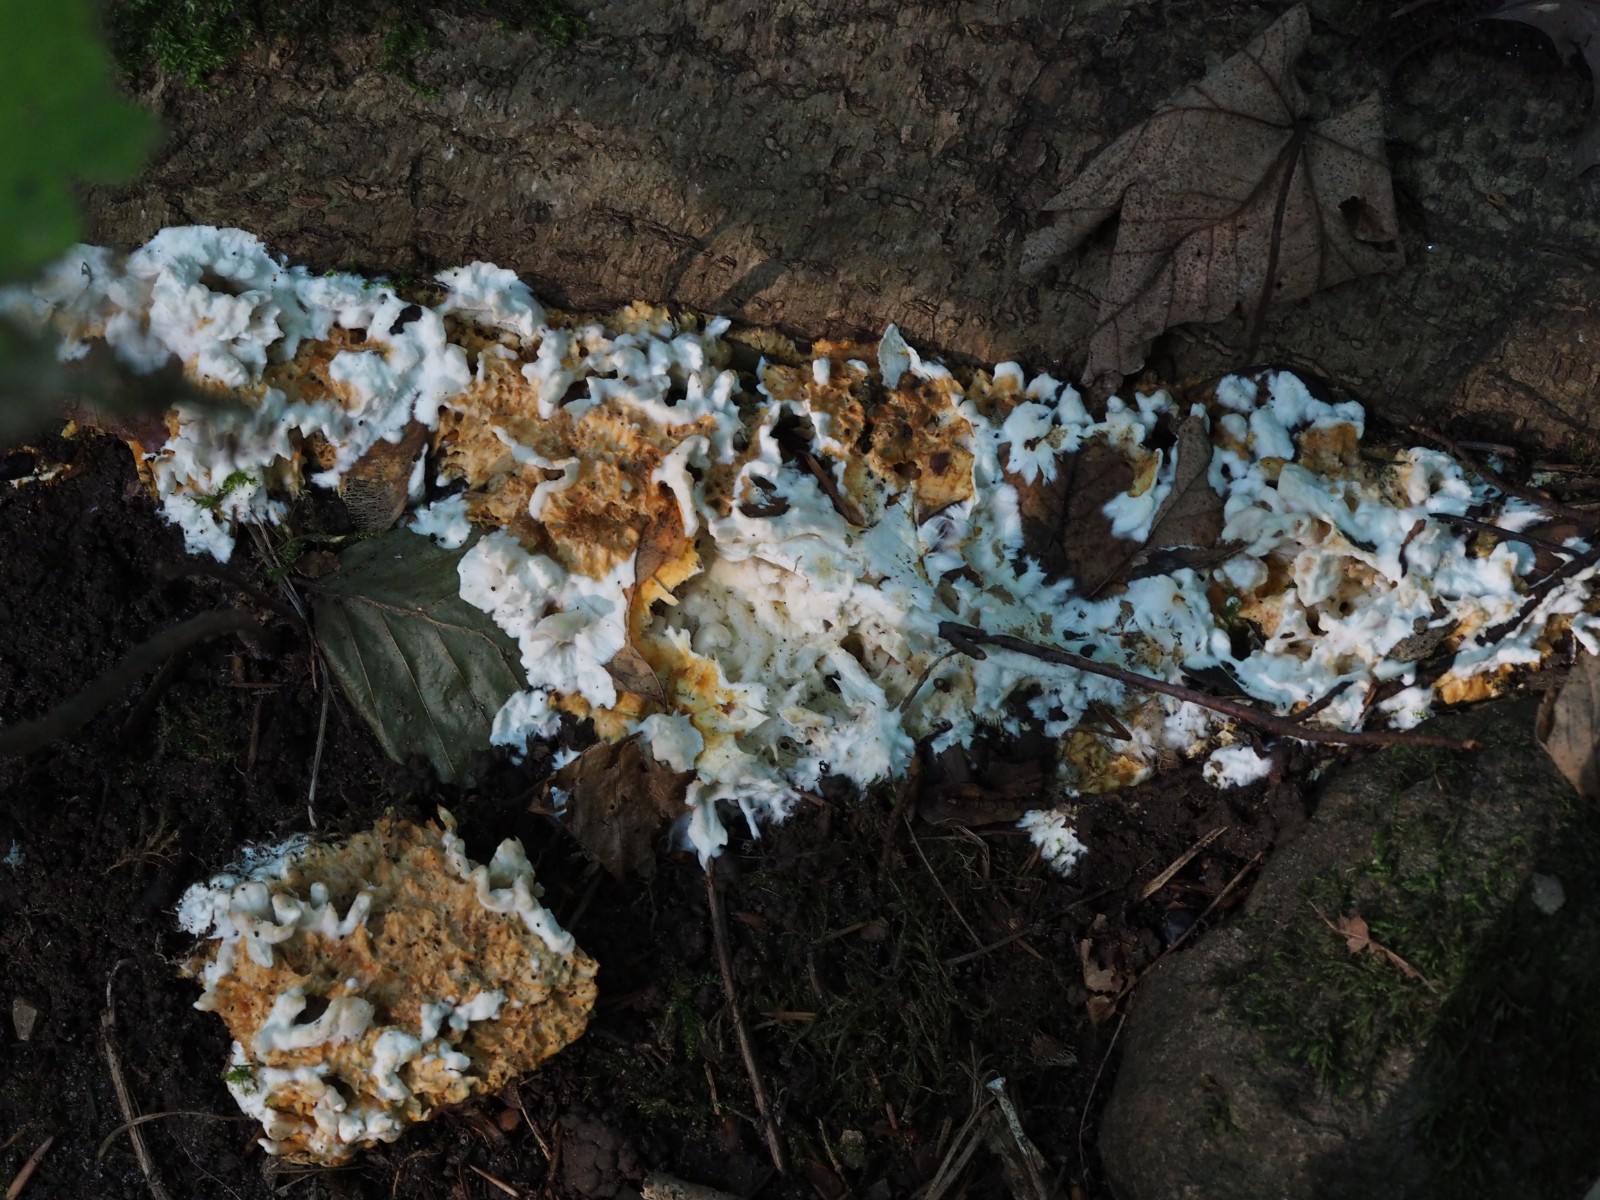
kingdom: Fungi
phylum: Basidiomycota
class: Agaricomycetes
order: Polyporales
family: Steccherinaceae
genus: Loweomyces
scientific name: Loweomyces wynneae
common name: krybende blødporesvamp
